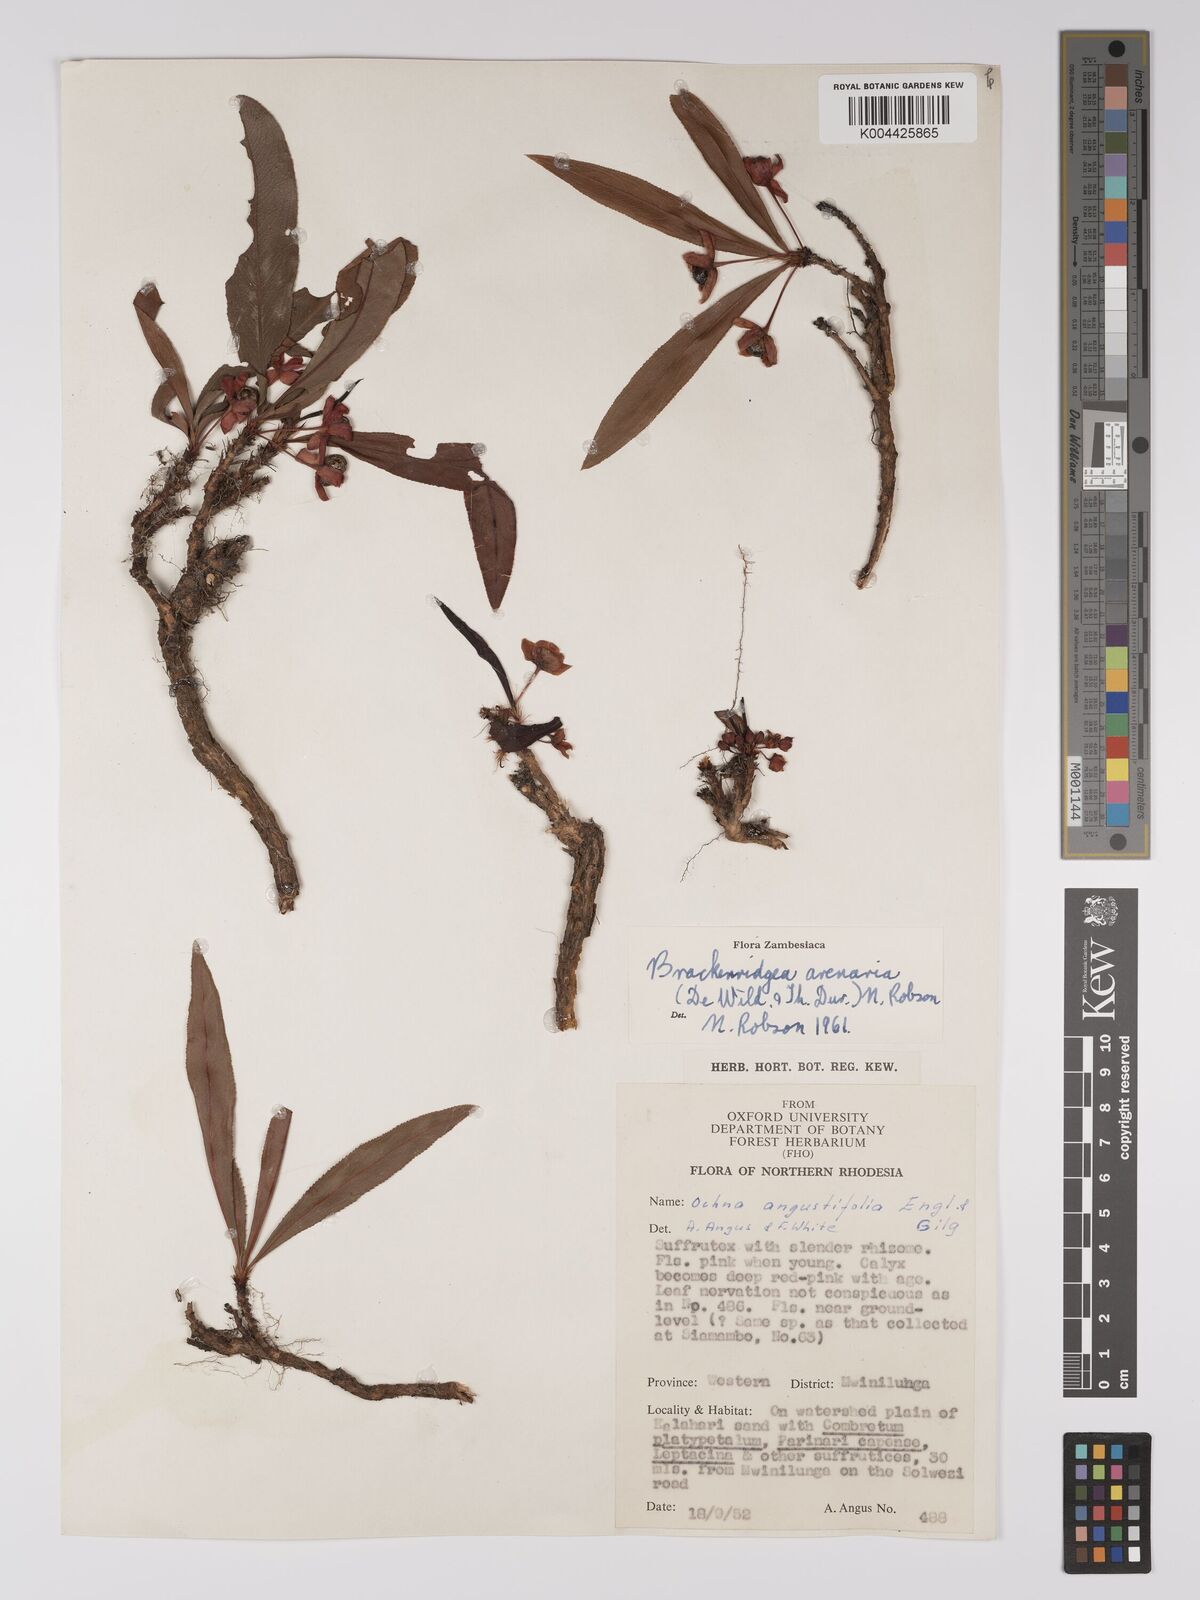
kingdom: Plantae
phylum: Tracheophyta
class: Magnoliopsida
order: Malpighiales
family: Ochnaceae
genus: Ochna
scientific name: Ochna arenaria
